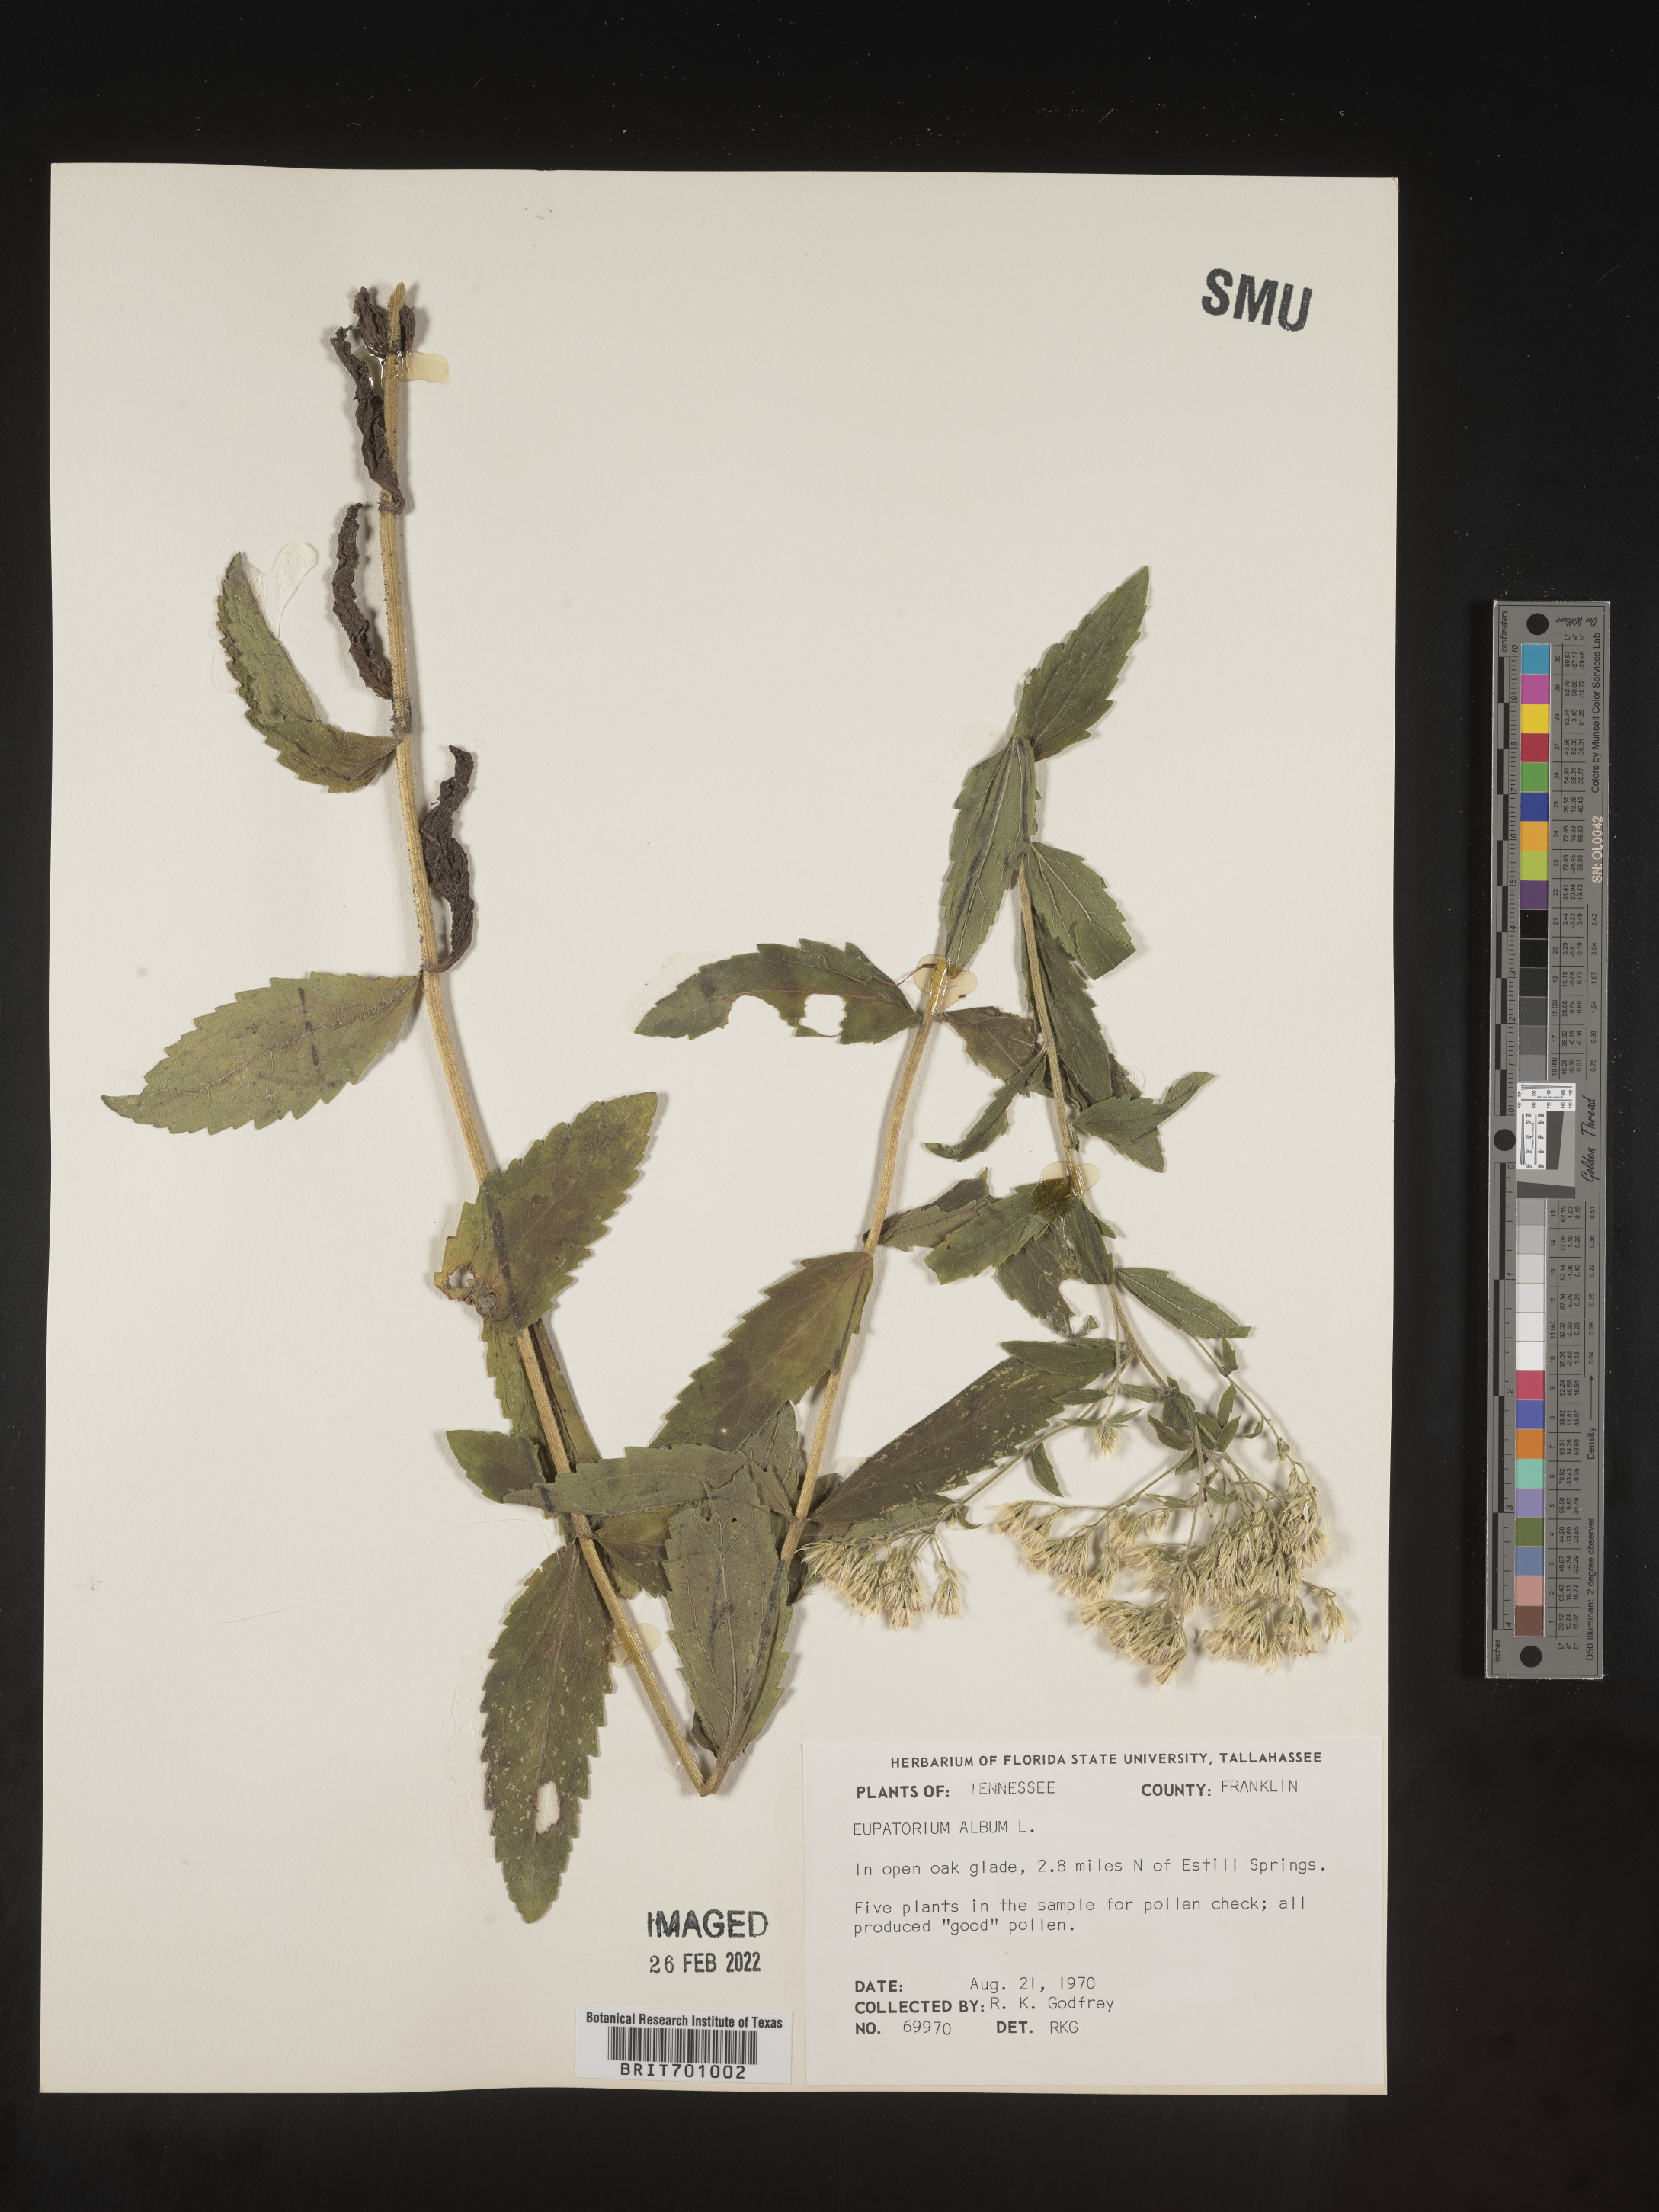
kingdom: Plantae
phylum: Tracheophyta
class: Magnoliopsida
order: Asterales
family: Asteraceae
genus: Eupatorium
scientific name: Eupatorium album
